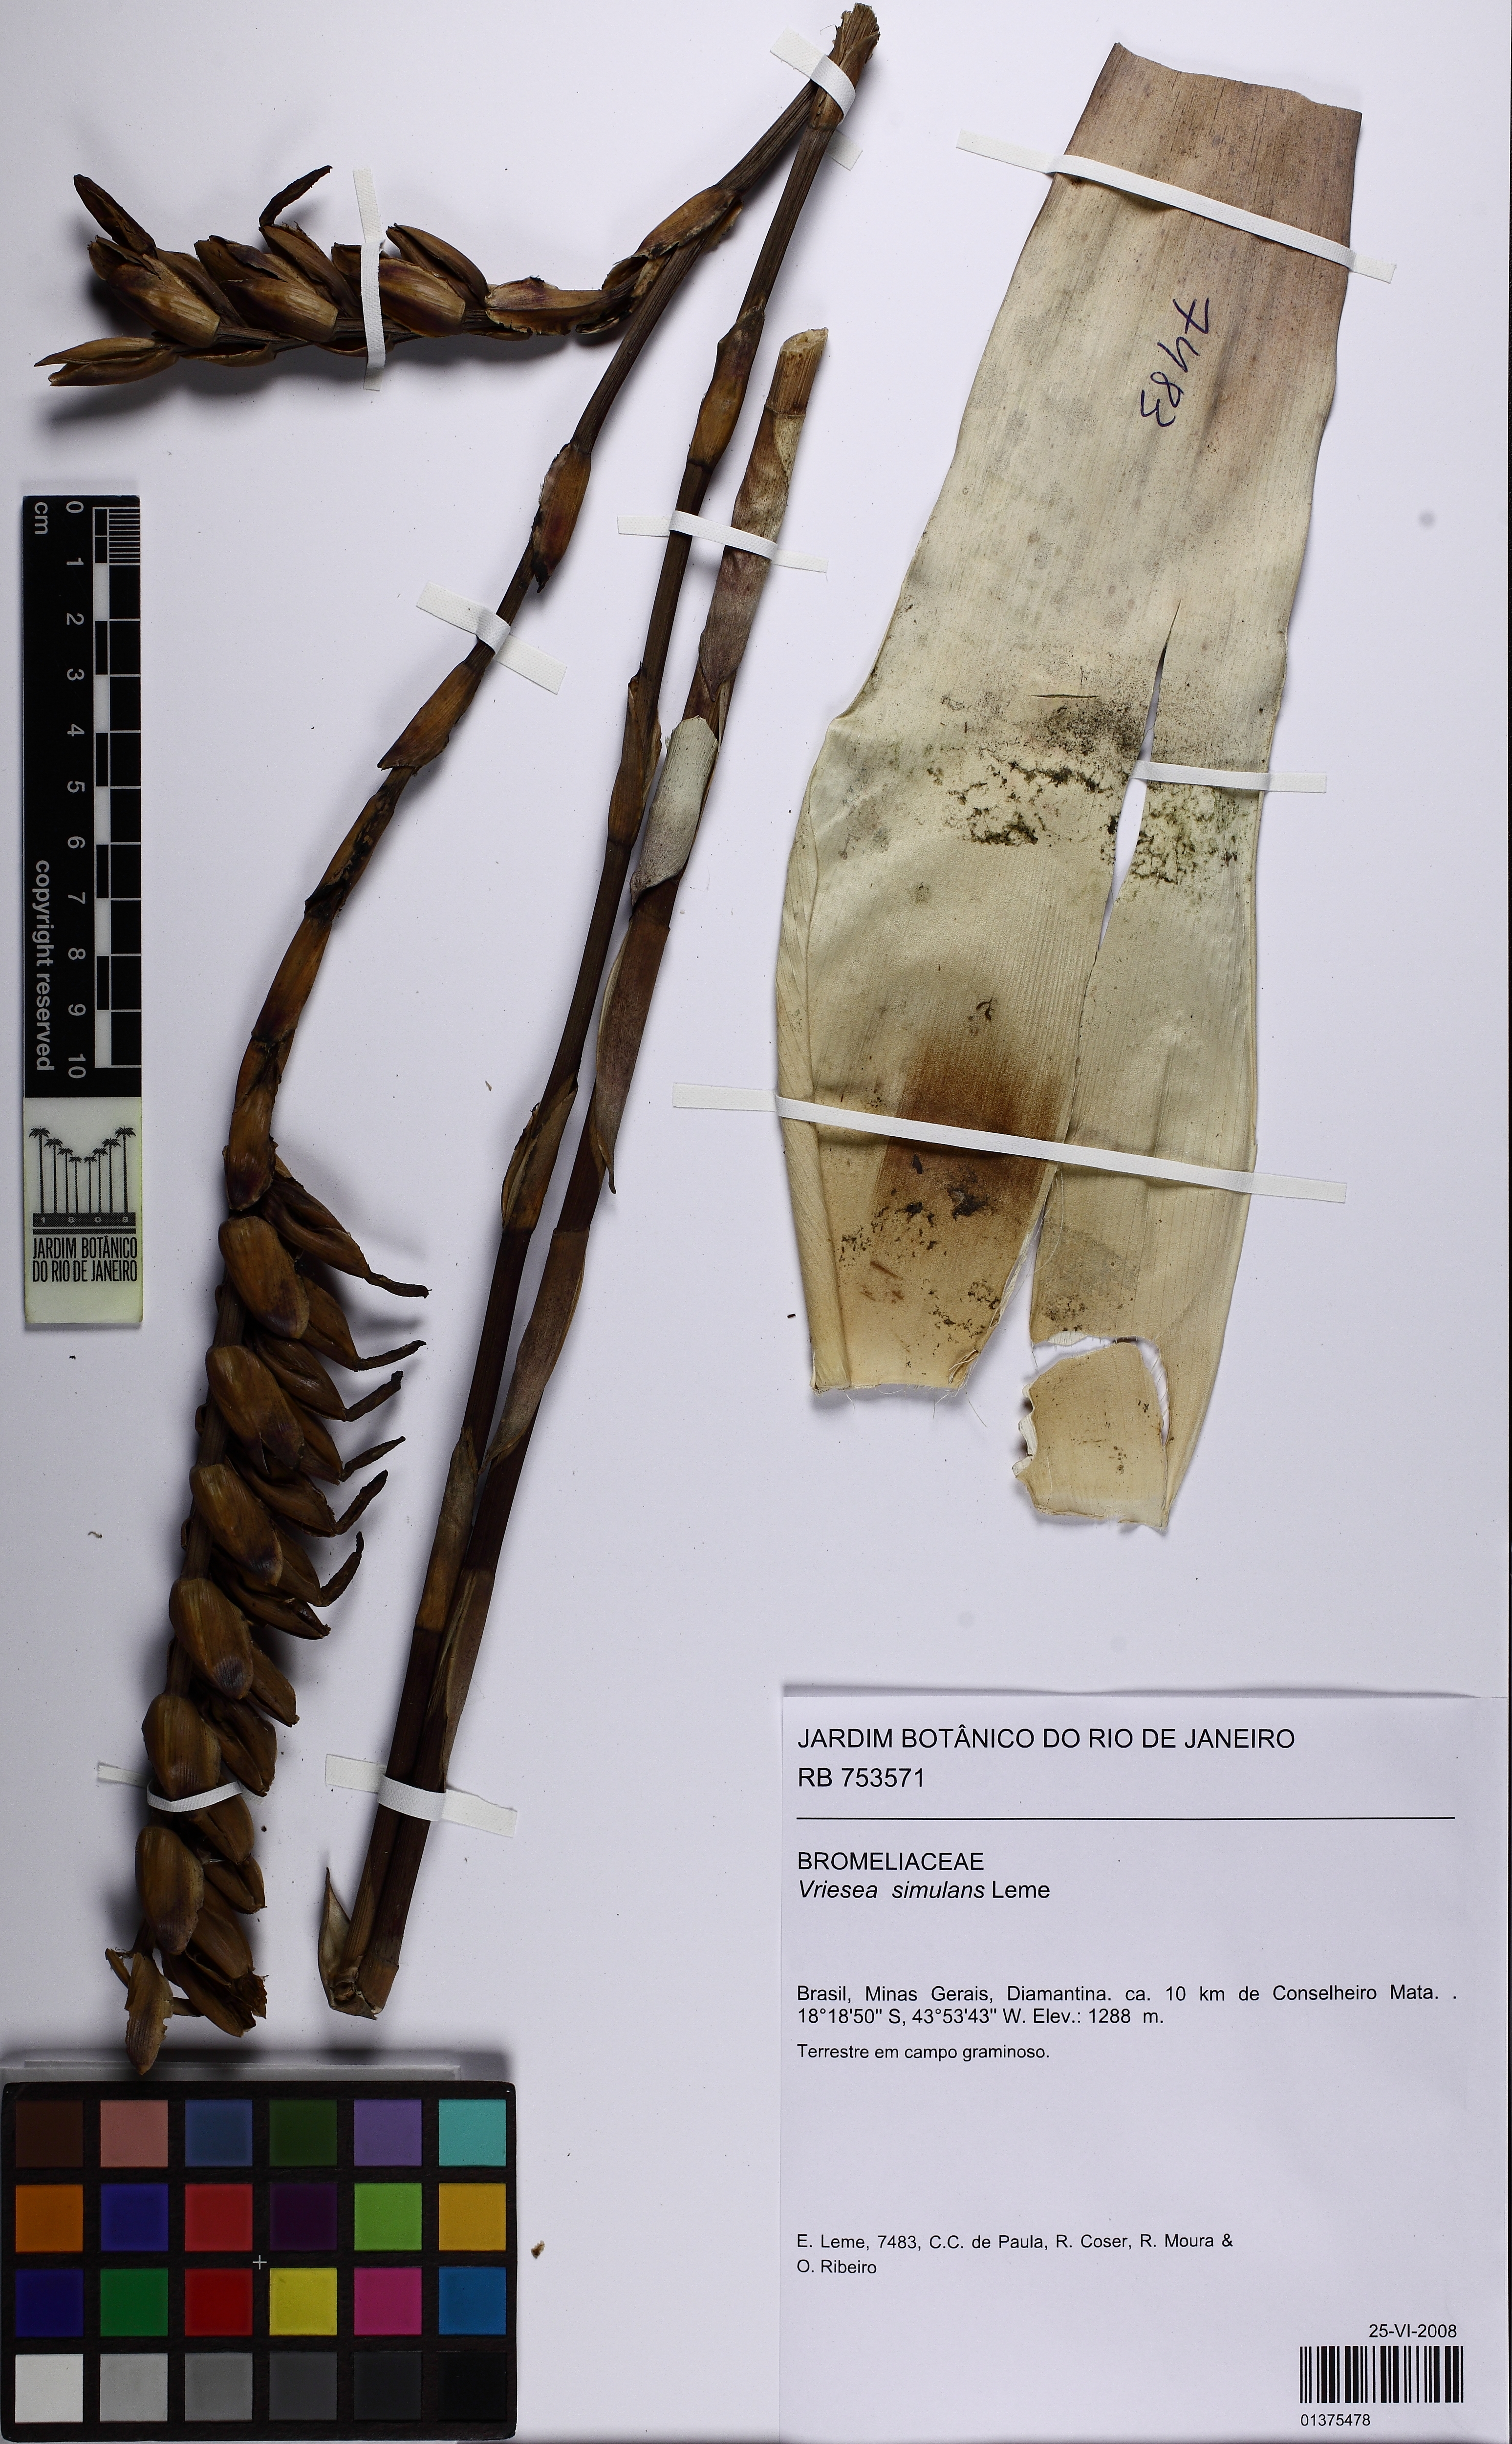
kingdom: Plantae
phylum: Tracheophyta
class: Liliopsida
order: Poales
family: Bromeliaceae
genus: Vriesea
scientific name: Vriesea simulans
